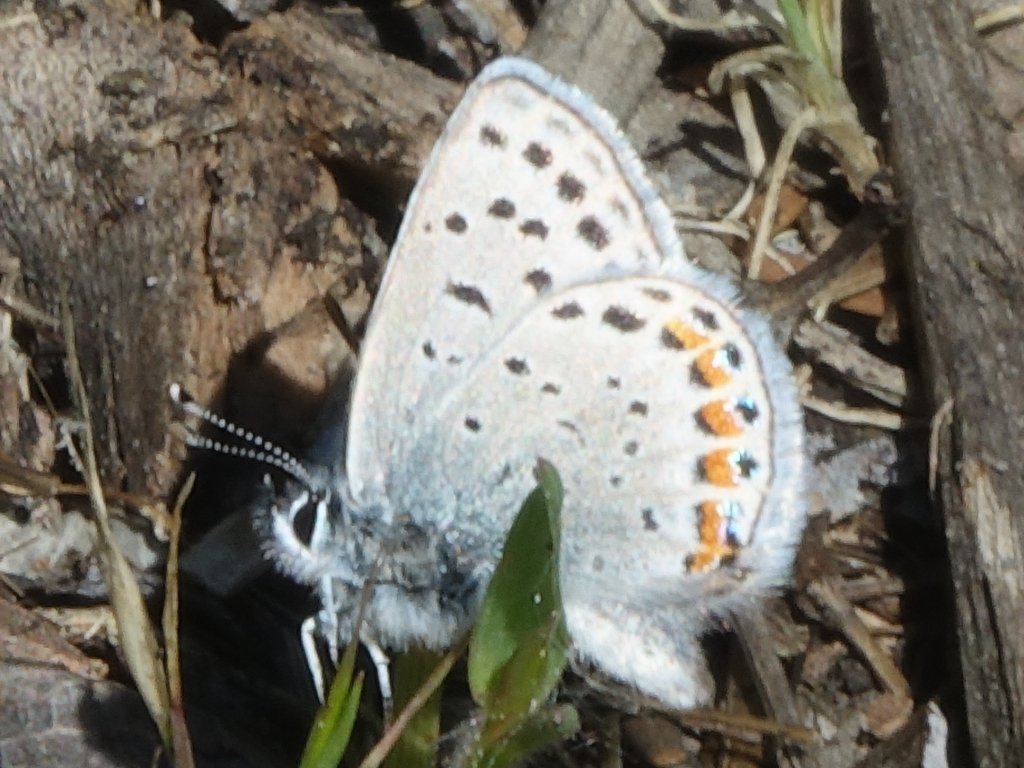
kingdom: Animalia
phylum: Arthropoda
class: Insecta
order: Lepidoptera
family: Lycaenidae
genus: Plebejus
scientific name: Plebejus acmon
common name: Acmon Blue
